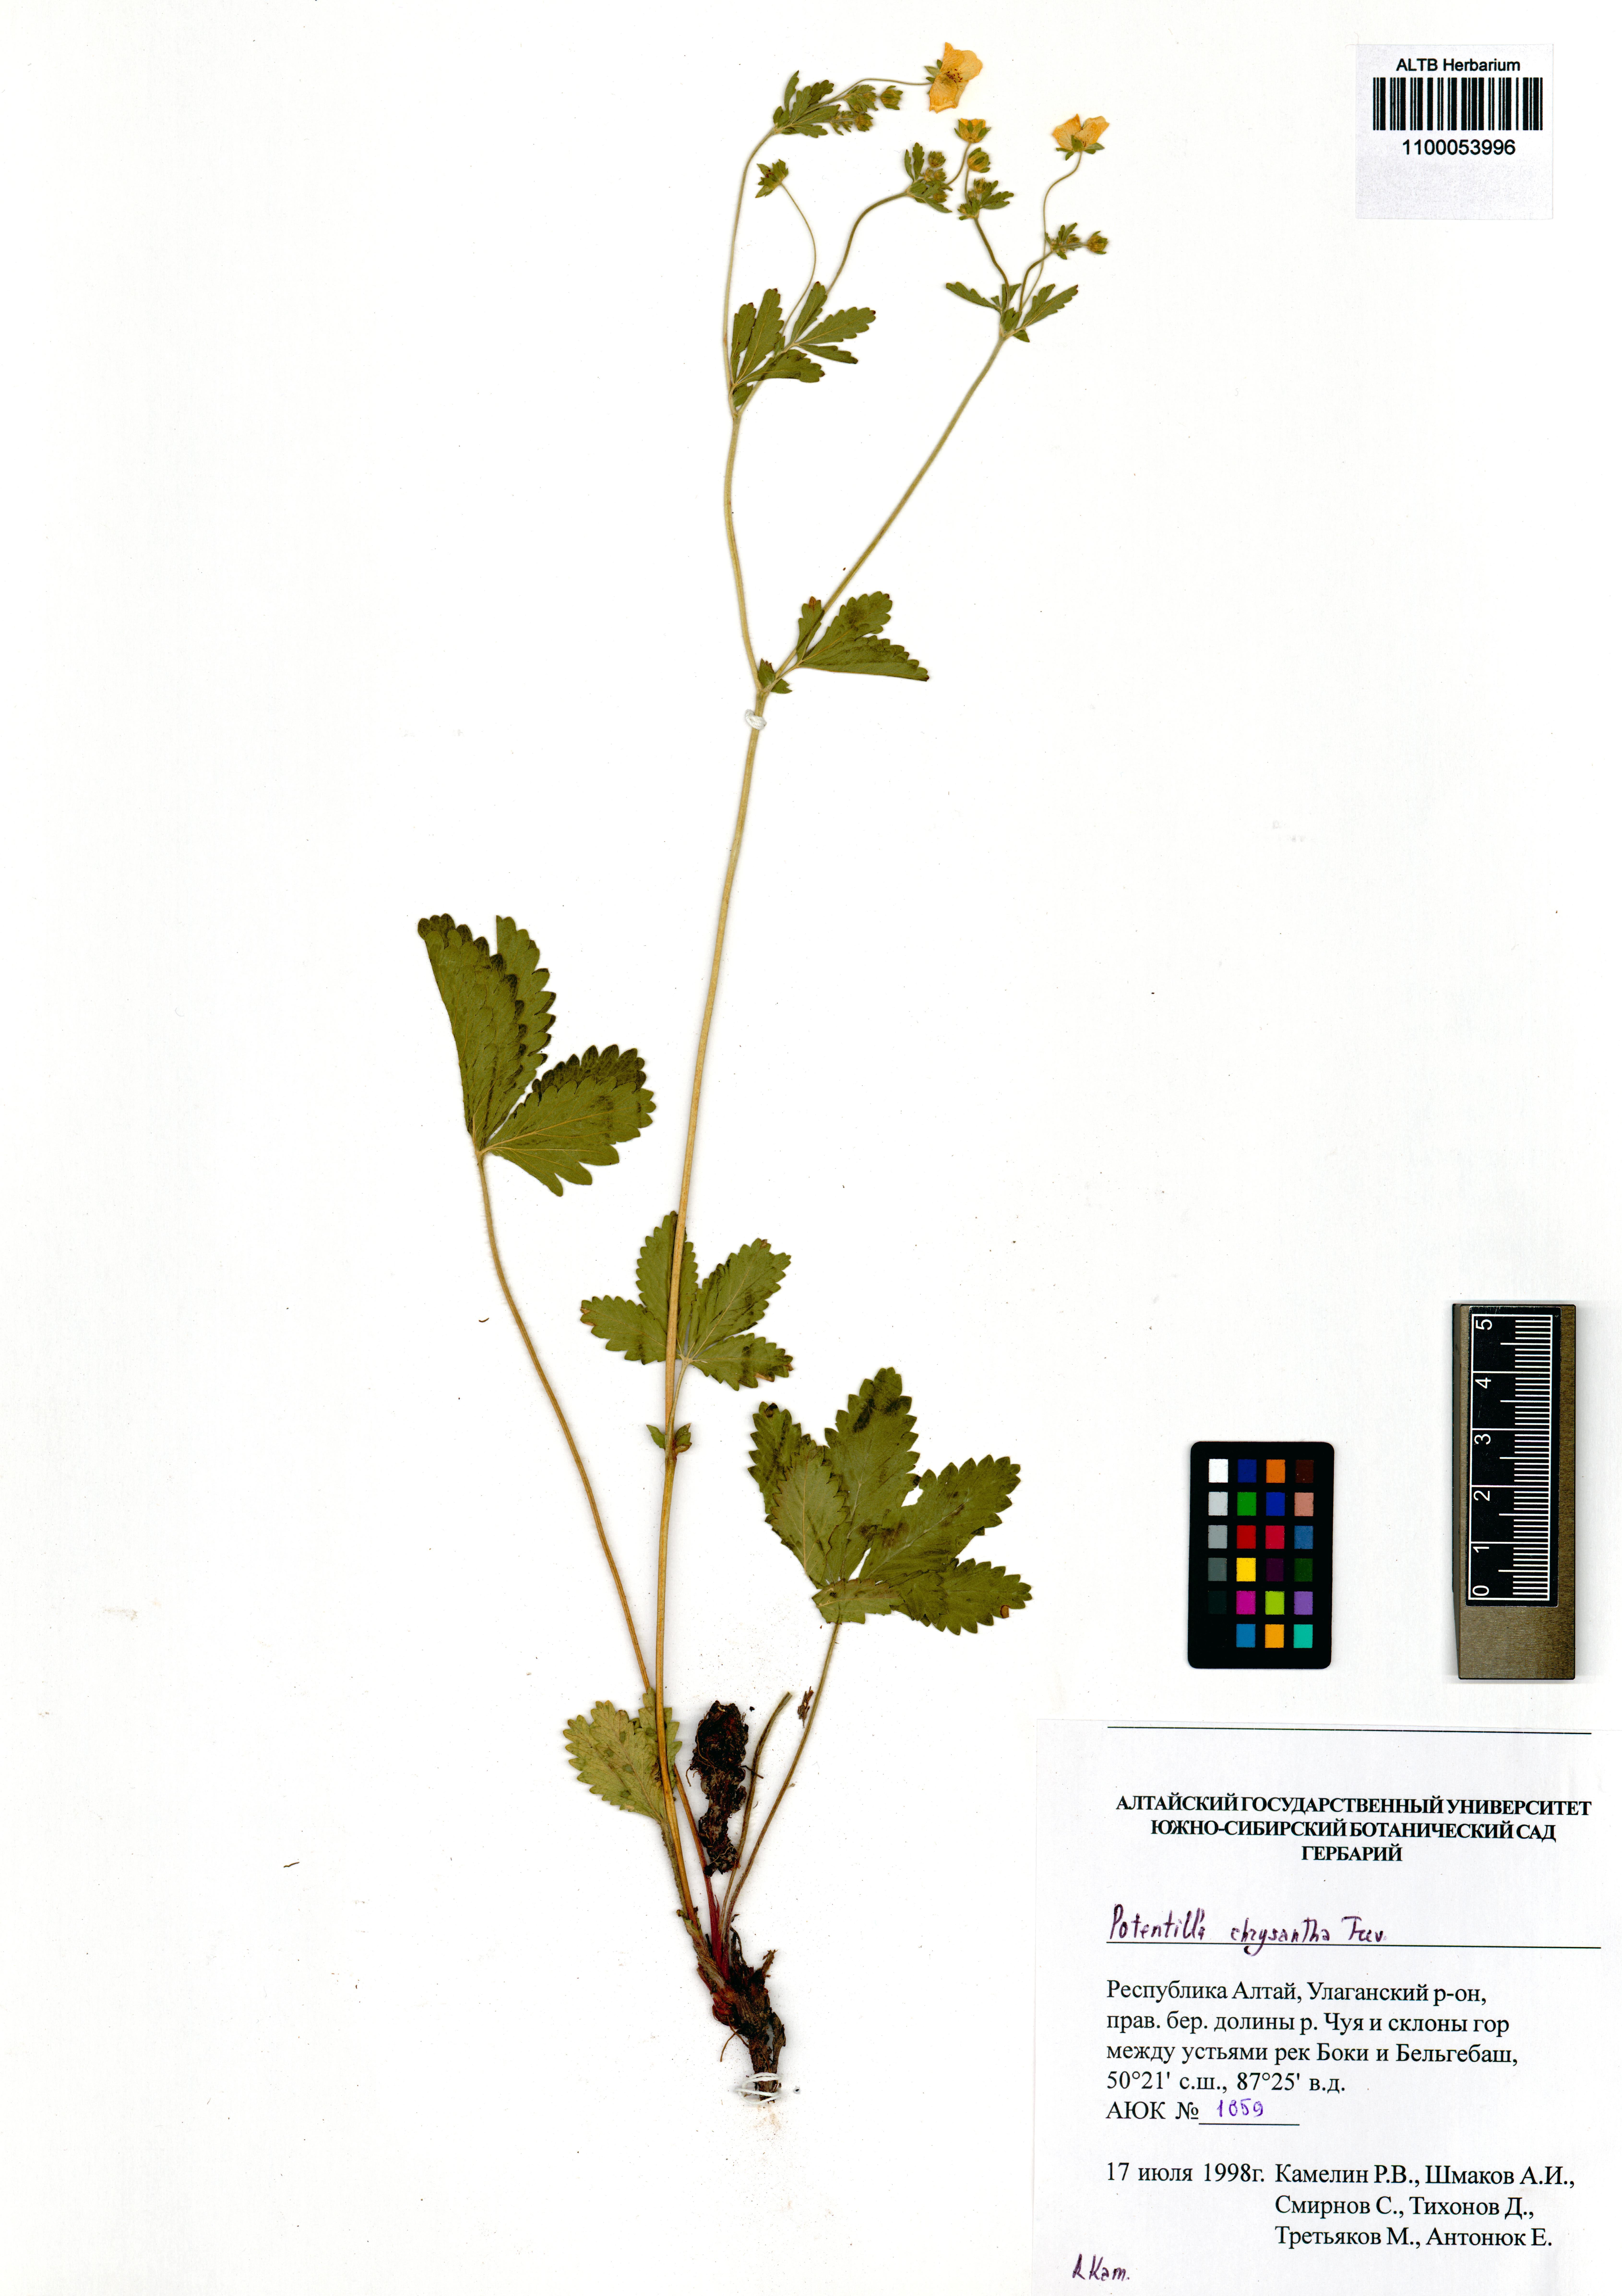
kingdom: Plantae
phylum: Tracheophyta
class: Magnoliopsida
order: Rosales
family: Rosaceae
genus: Potentilla
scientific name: Potentilla chrysantha
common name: Thuringian cinquefoil
